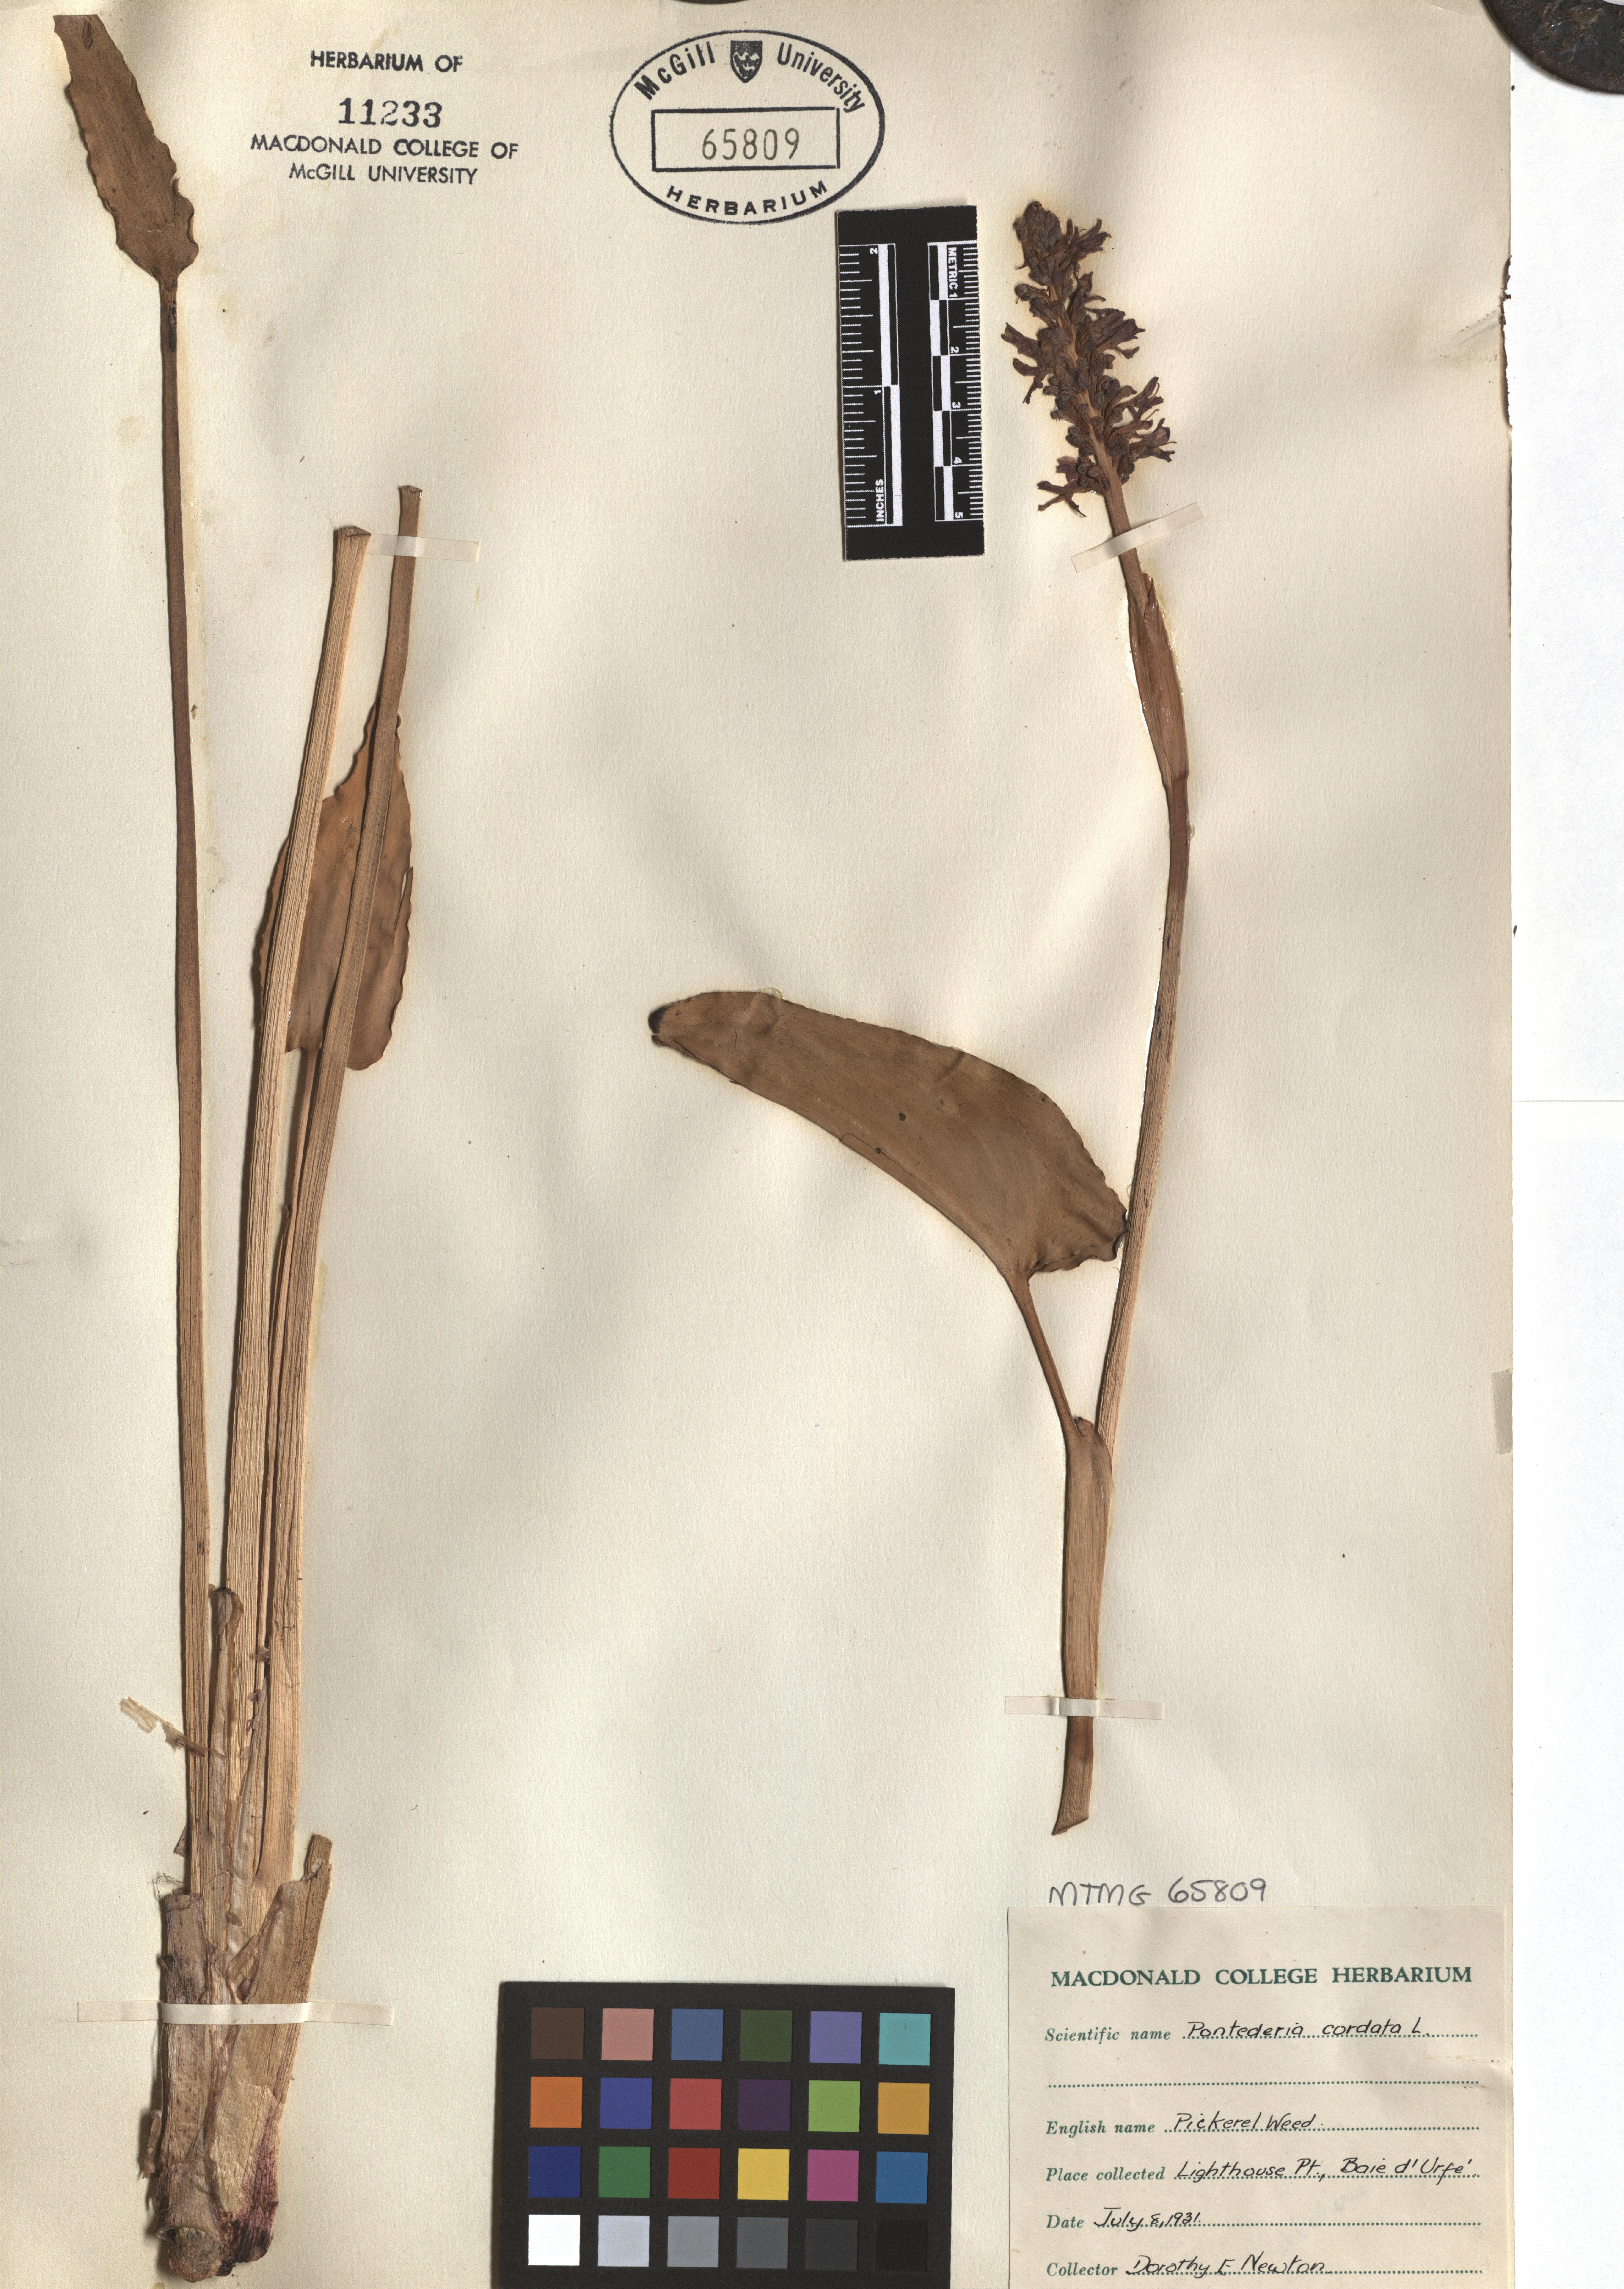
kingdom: Plantae
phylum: Tracheophyta
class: Liliopsida
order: Commelinales
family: Pontederiaceae
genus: Pontederia
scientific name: Pontederia cordata
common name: Pickerelweed
